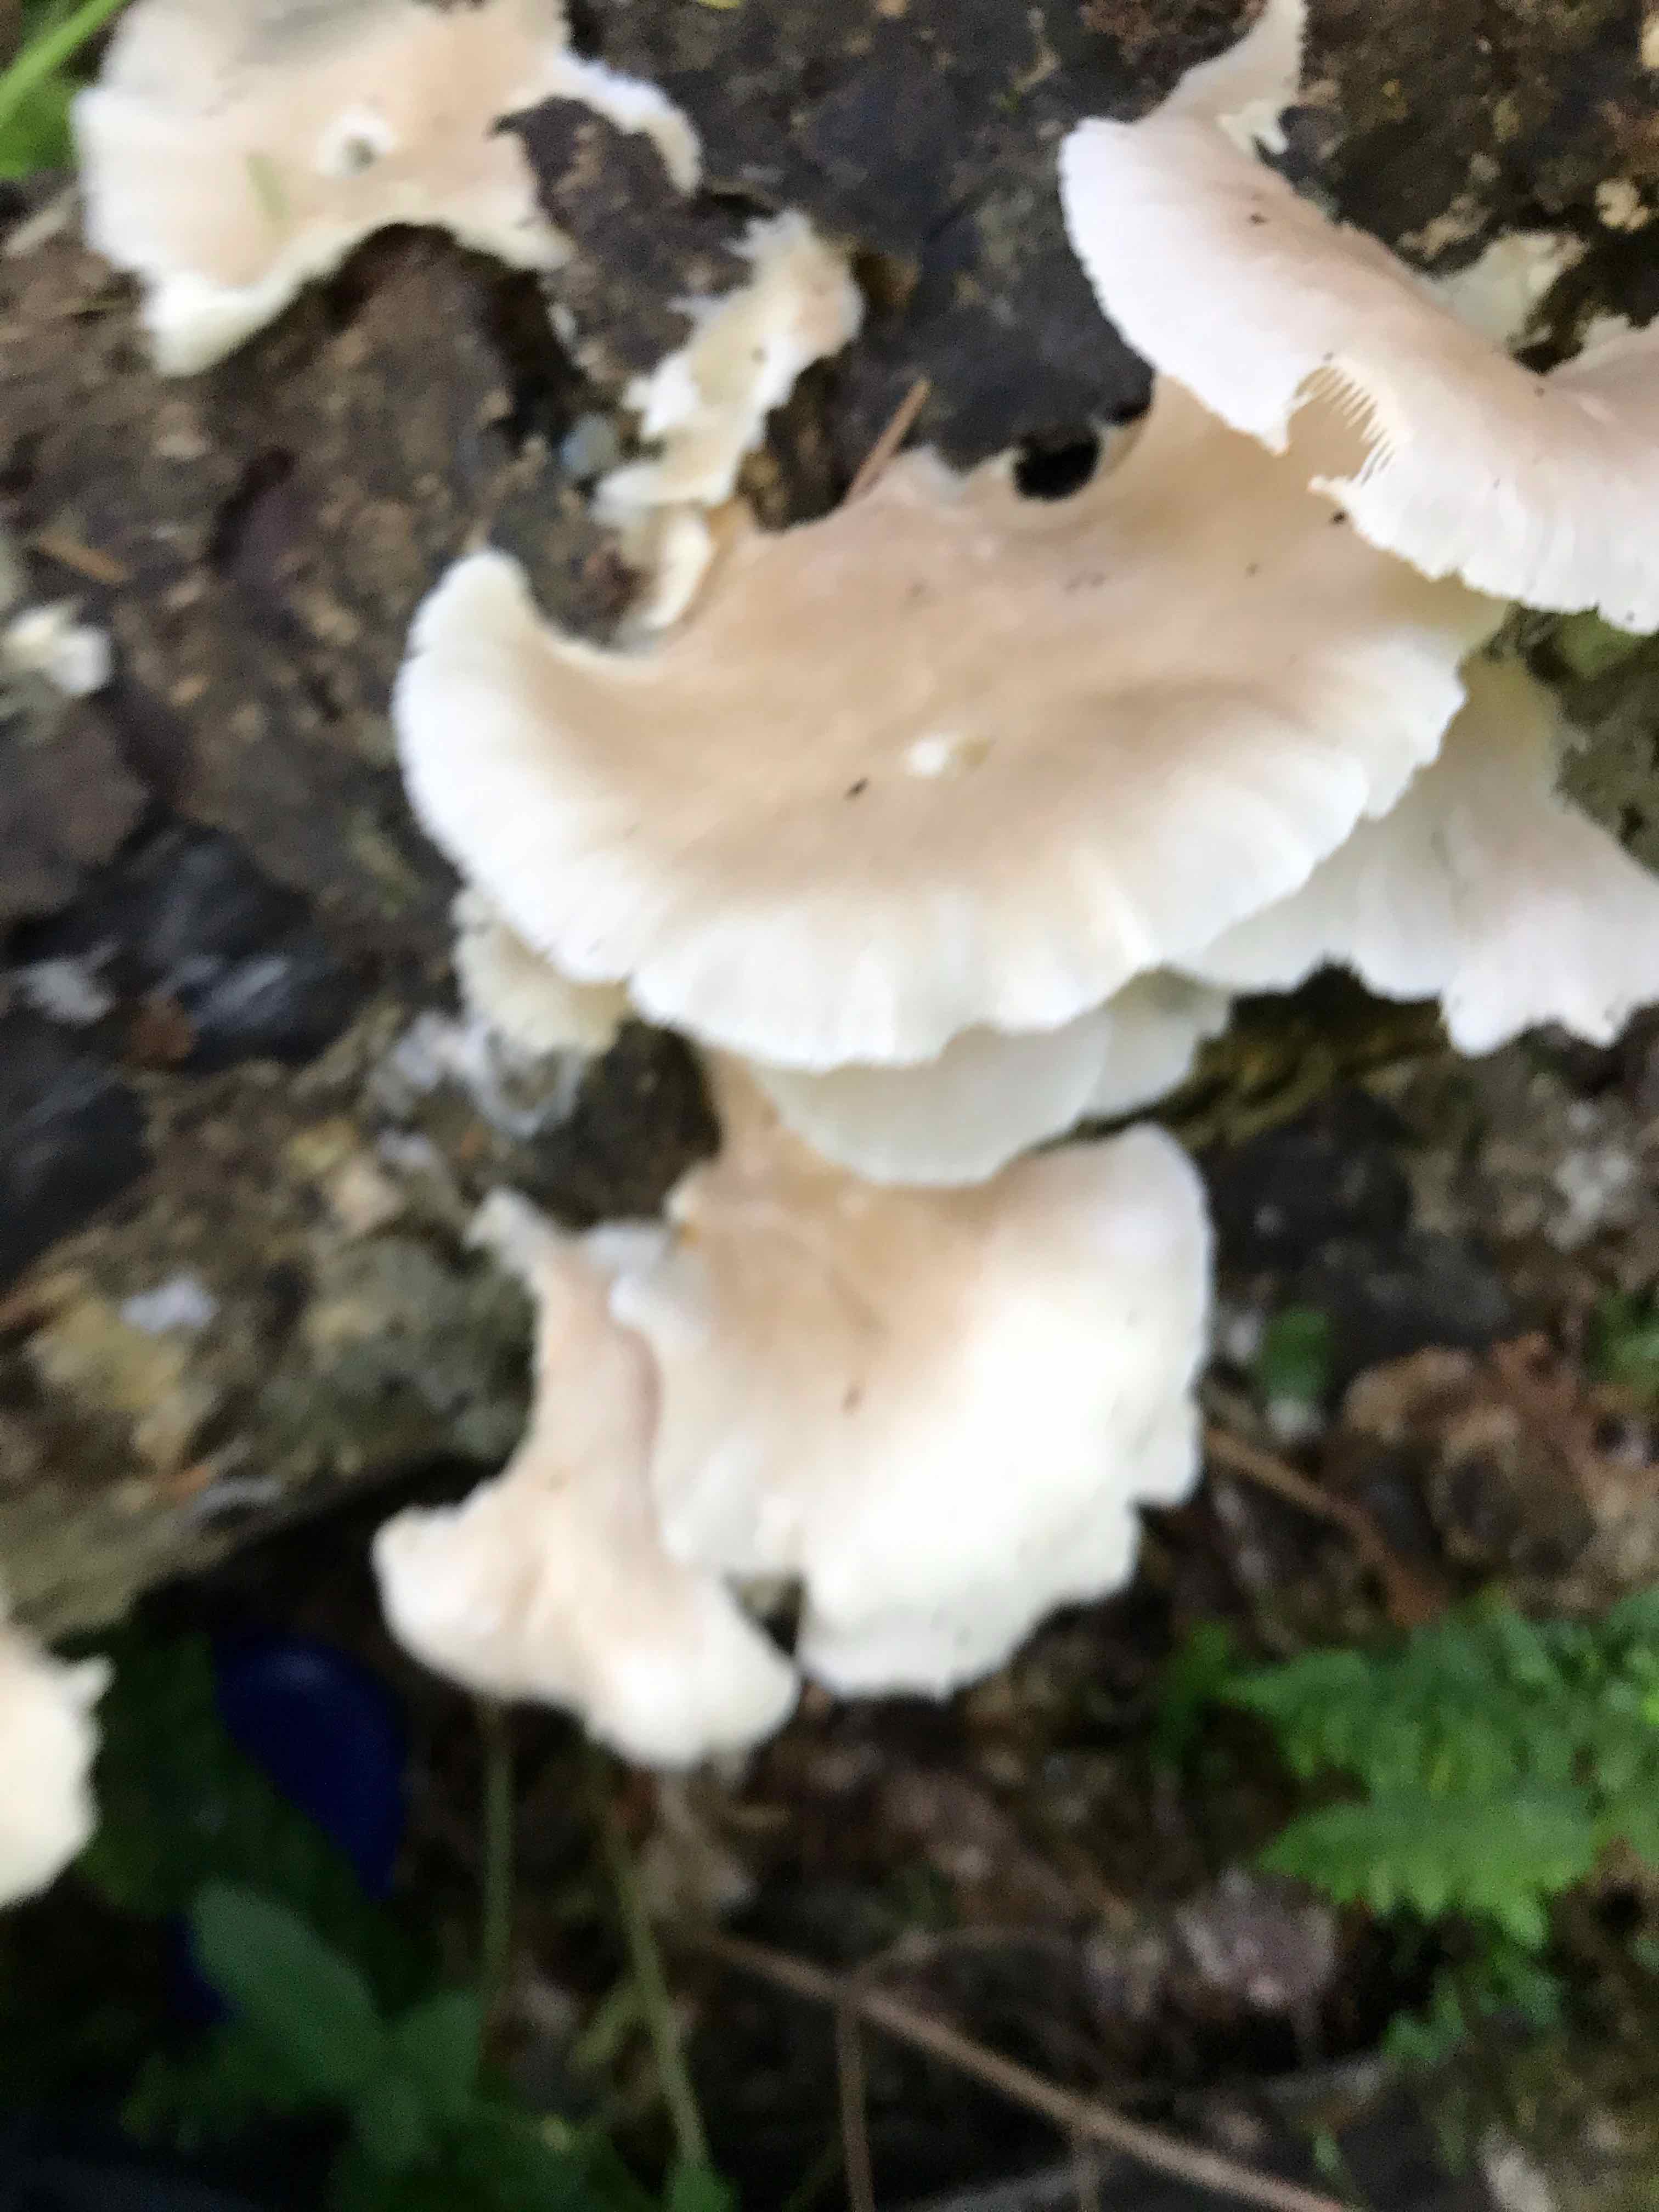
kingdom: Fungi
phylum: Basidiomycota
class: Agaricomycetes
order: Agaricales
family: Pleurotaceae
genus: Pleurotus
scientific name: Pleurotus pulmonarius
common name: sommer-østershat
